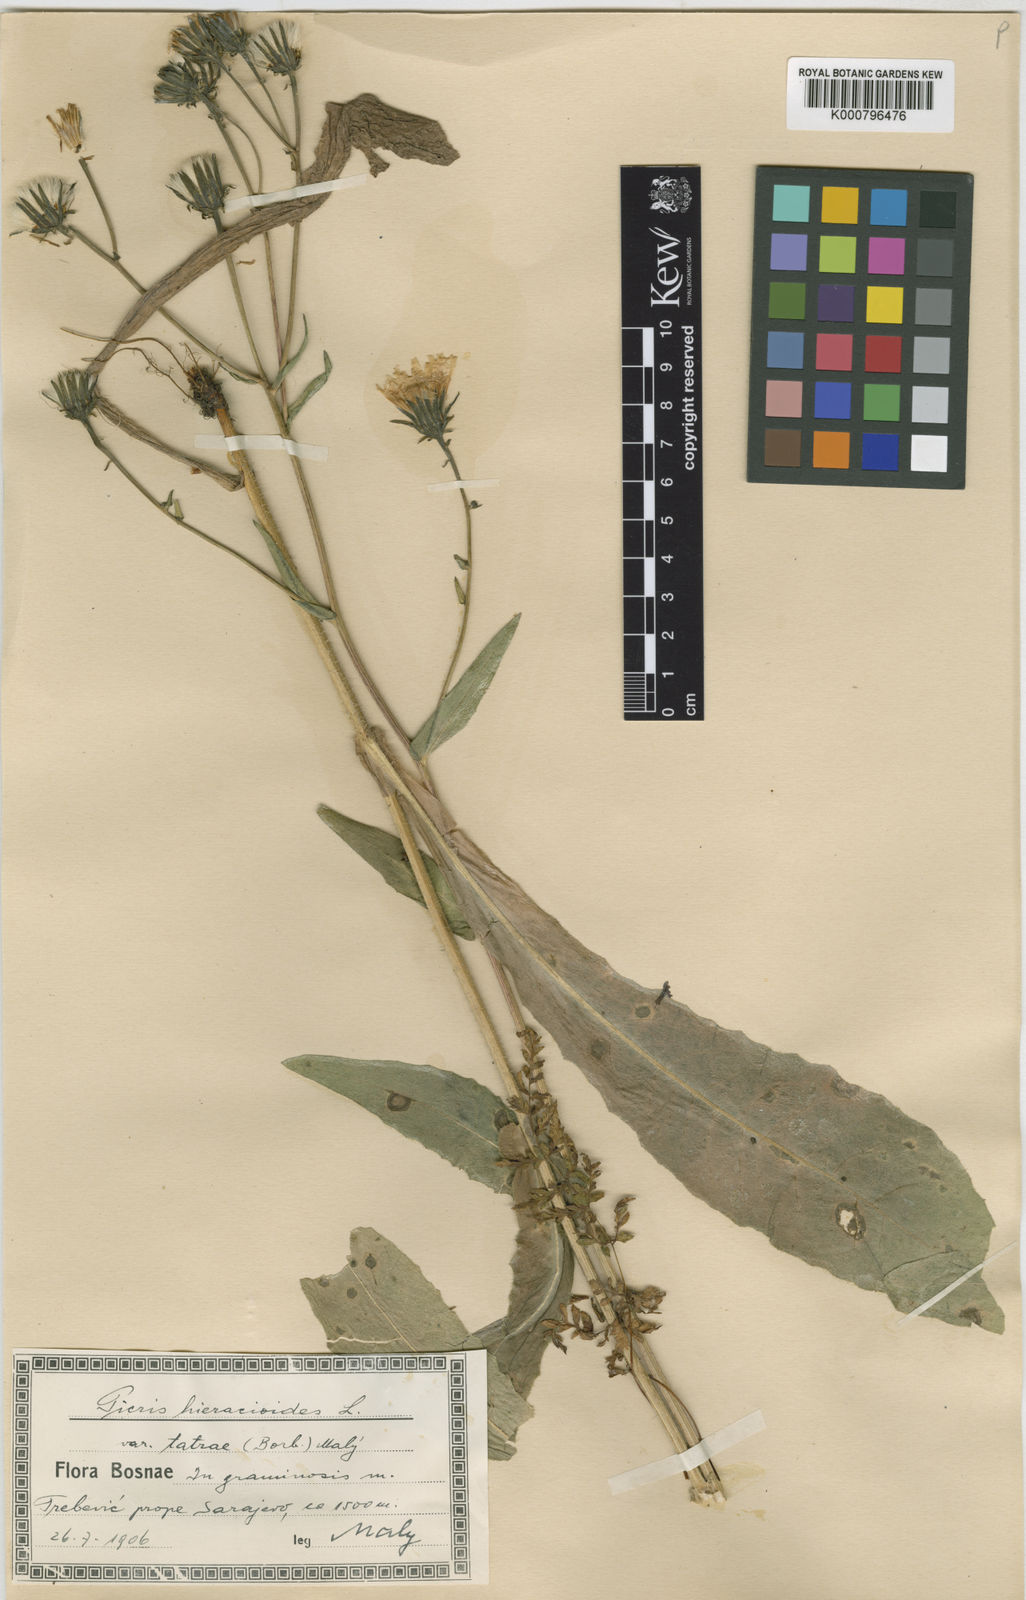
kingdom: Plantae
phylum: Tracheophyta
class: Magnoliopsida
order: Asterales
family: Asteraceae
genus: Picris
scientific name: Picris hieracioides
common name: Hawkweed oxtongue
